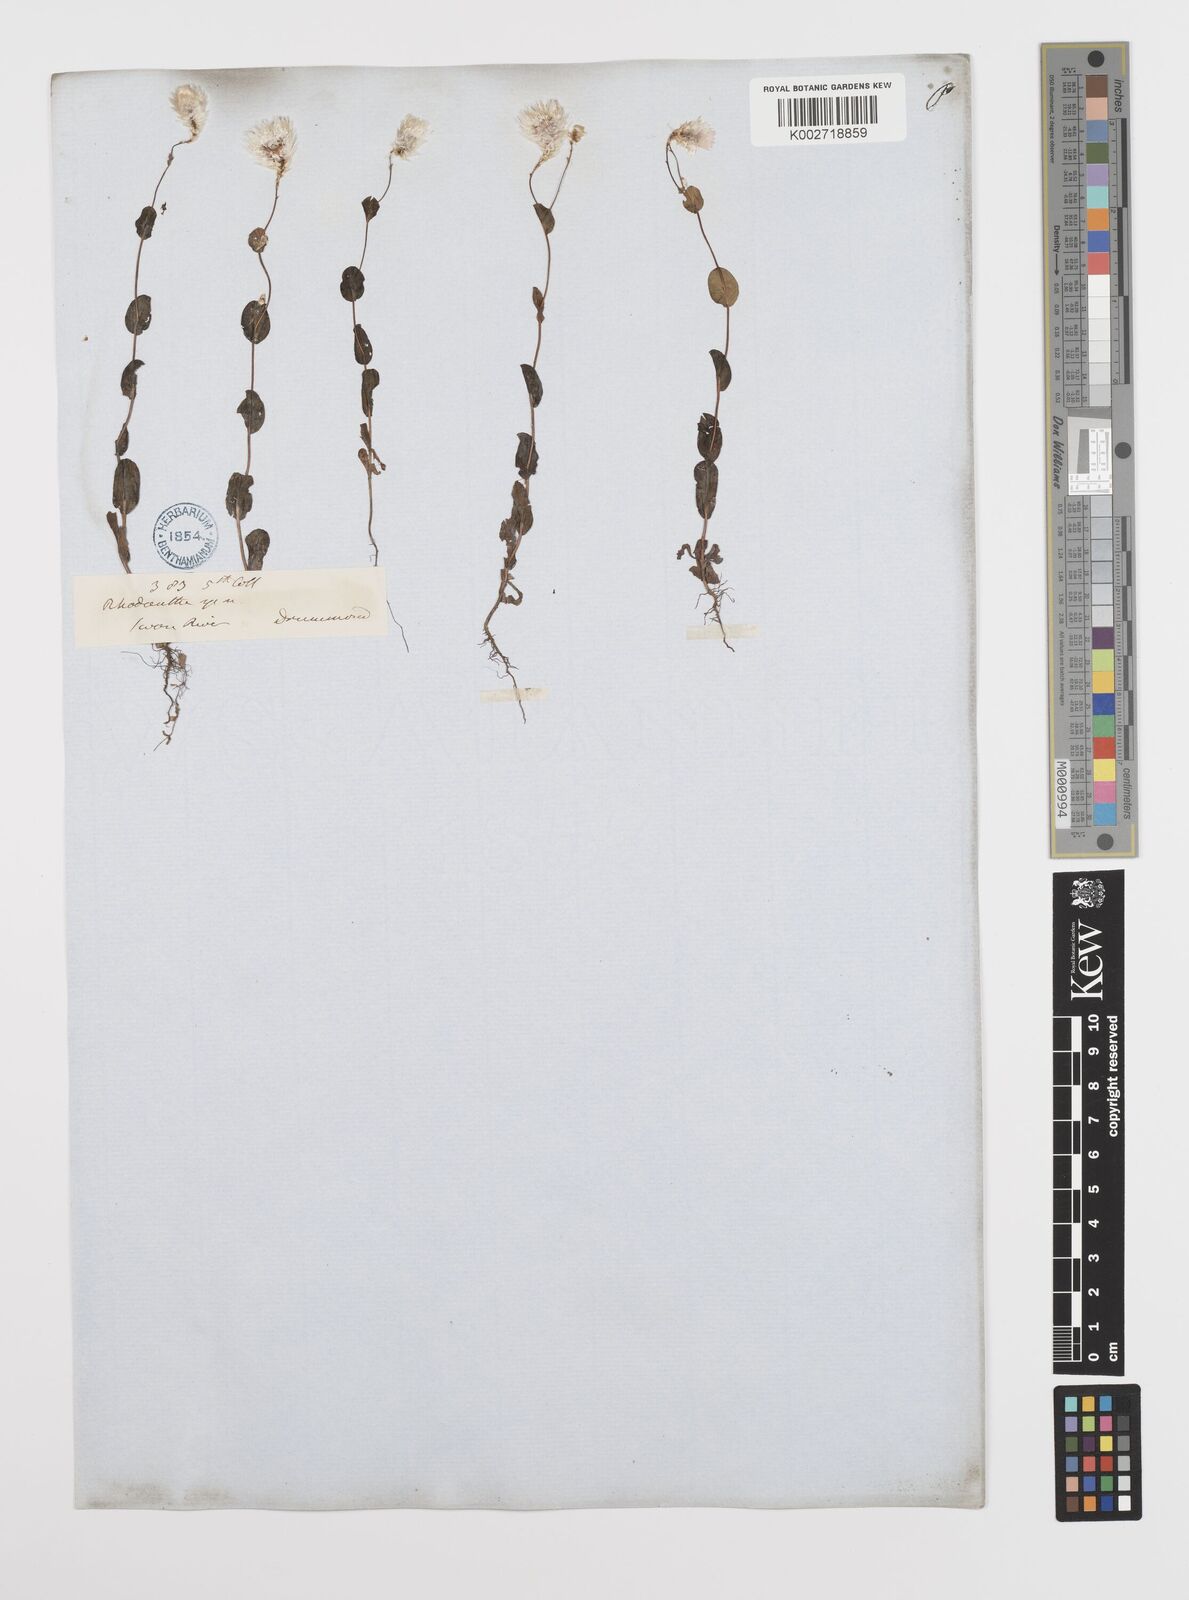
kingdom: Plantae
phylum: Tracheophyta
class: Magnoliopsida
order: Asterales
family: Asteraceae
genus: Rhodanthe
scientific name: Rhodanthe manglesii
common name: Pink sunray
